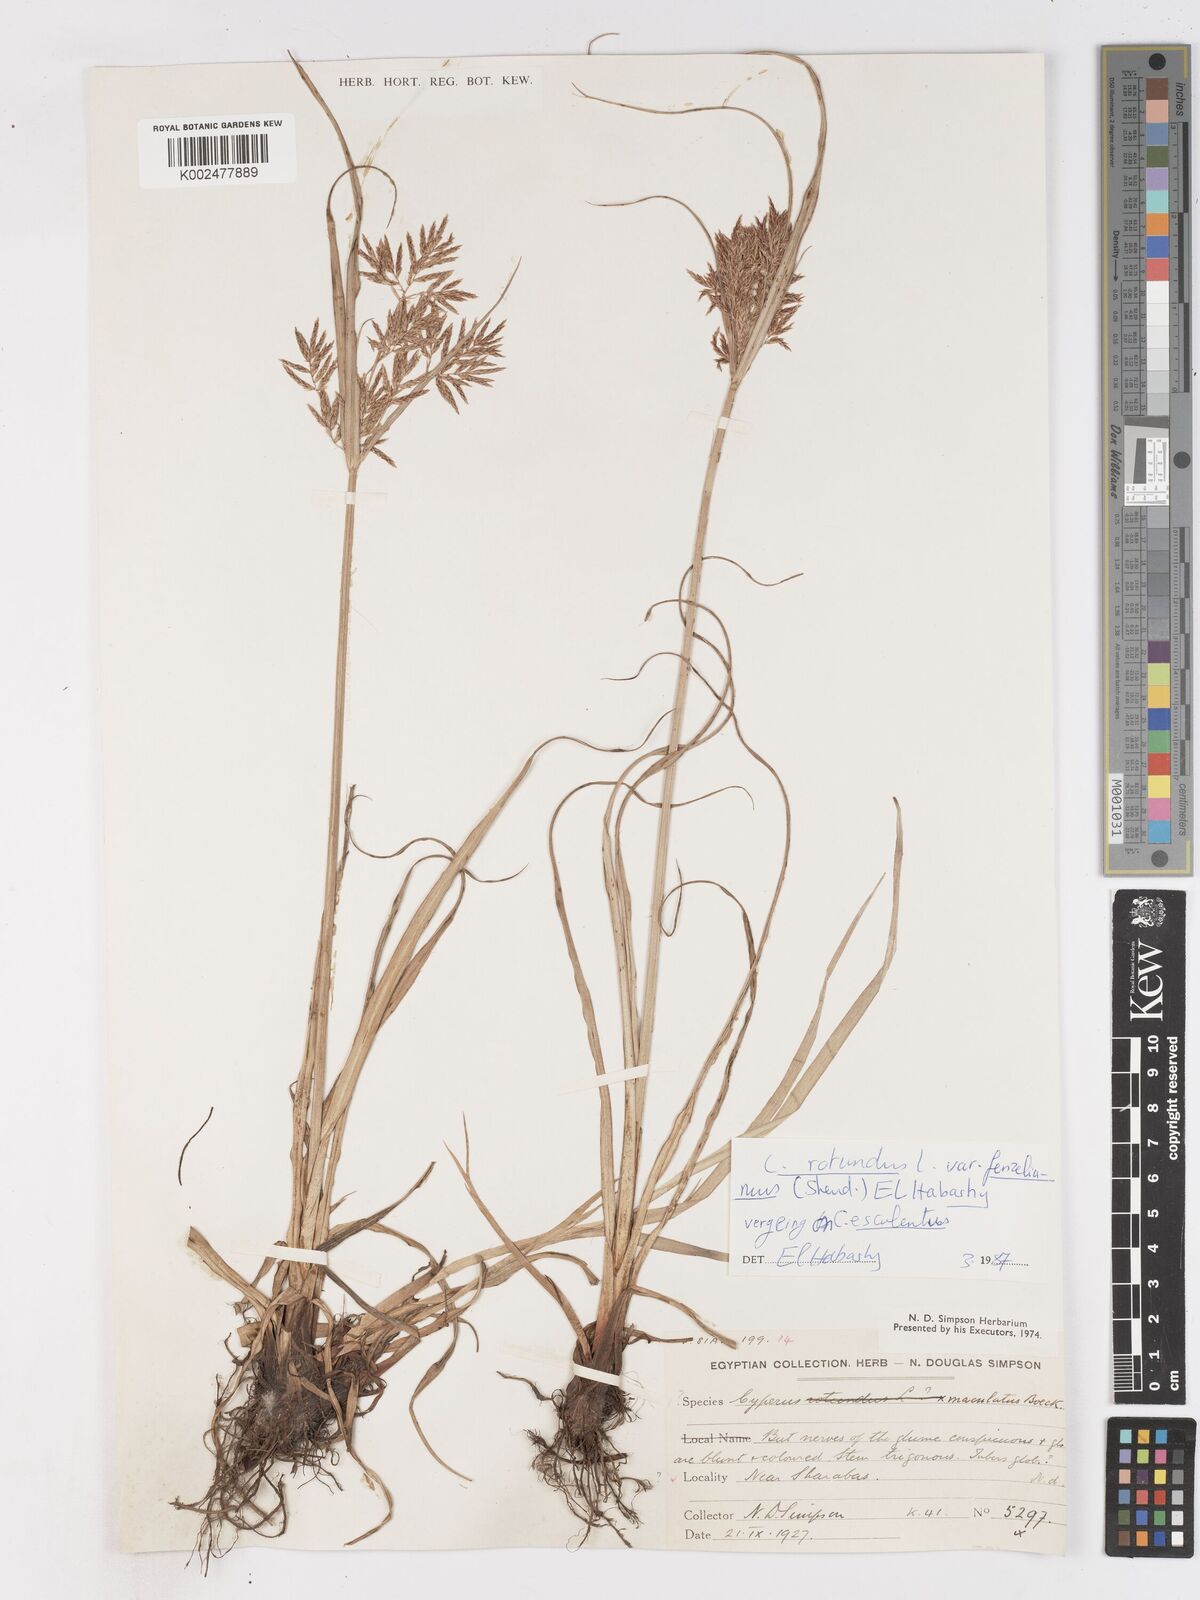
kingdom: Plantae
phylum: Tracheophyta
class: Liliopsida
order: Poales
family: Cyperaceae
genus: Cyperus
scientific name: Cyperus longus
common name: Galingale
